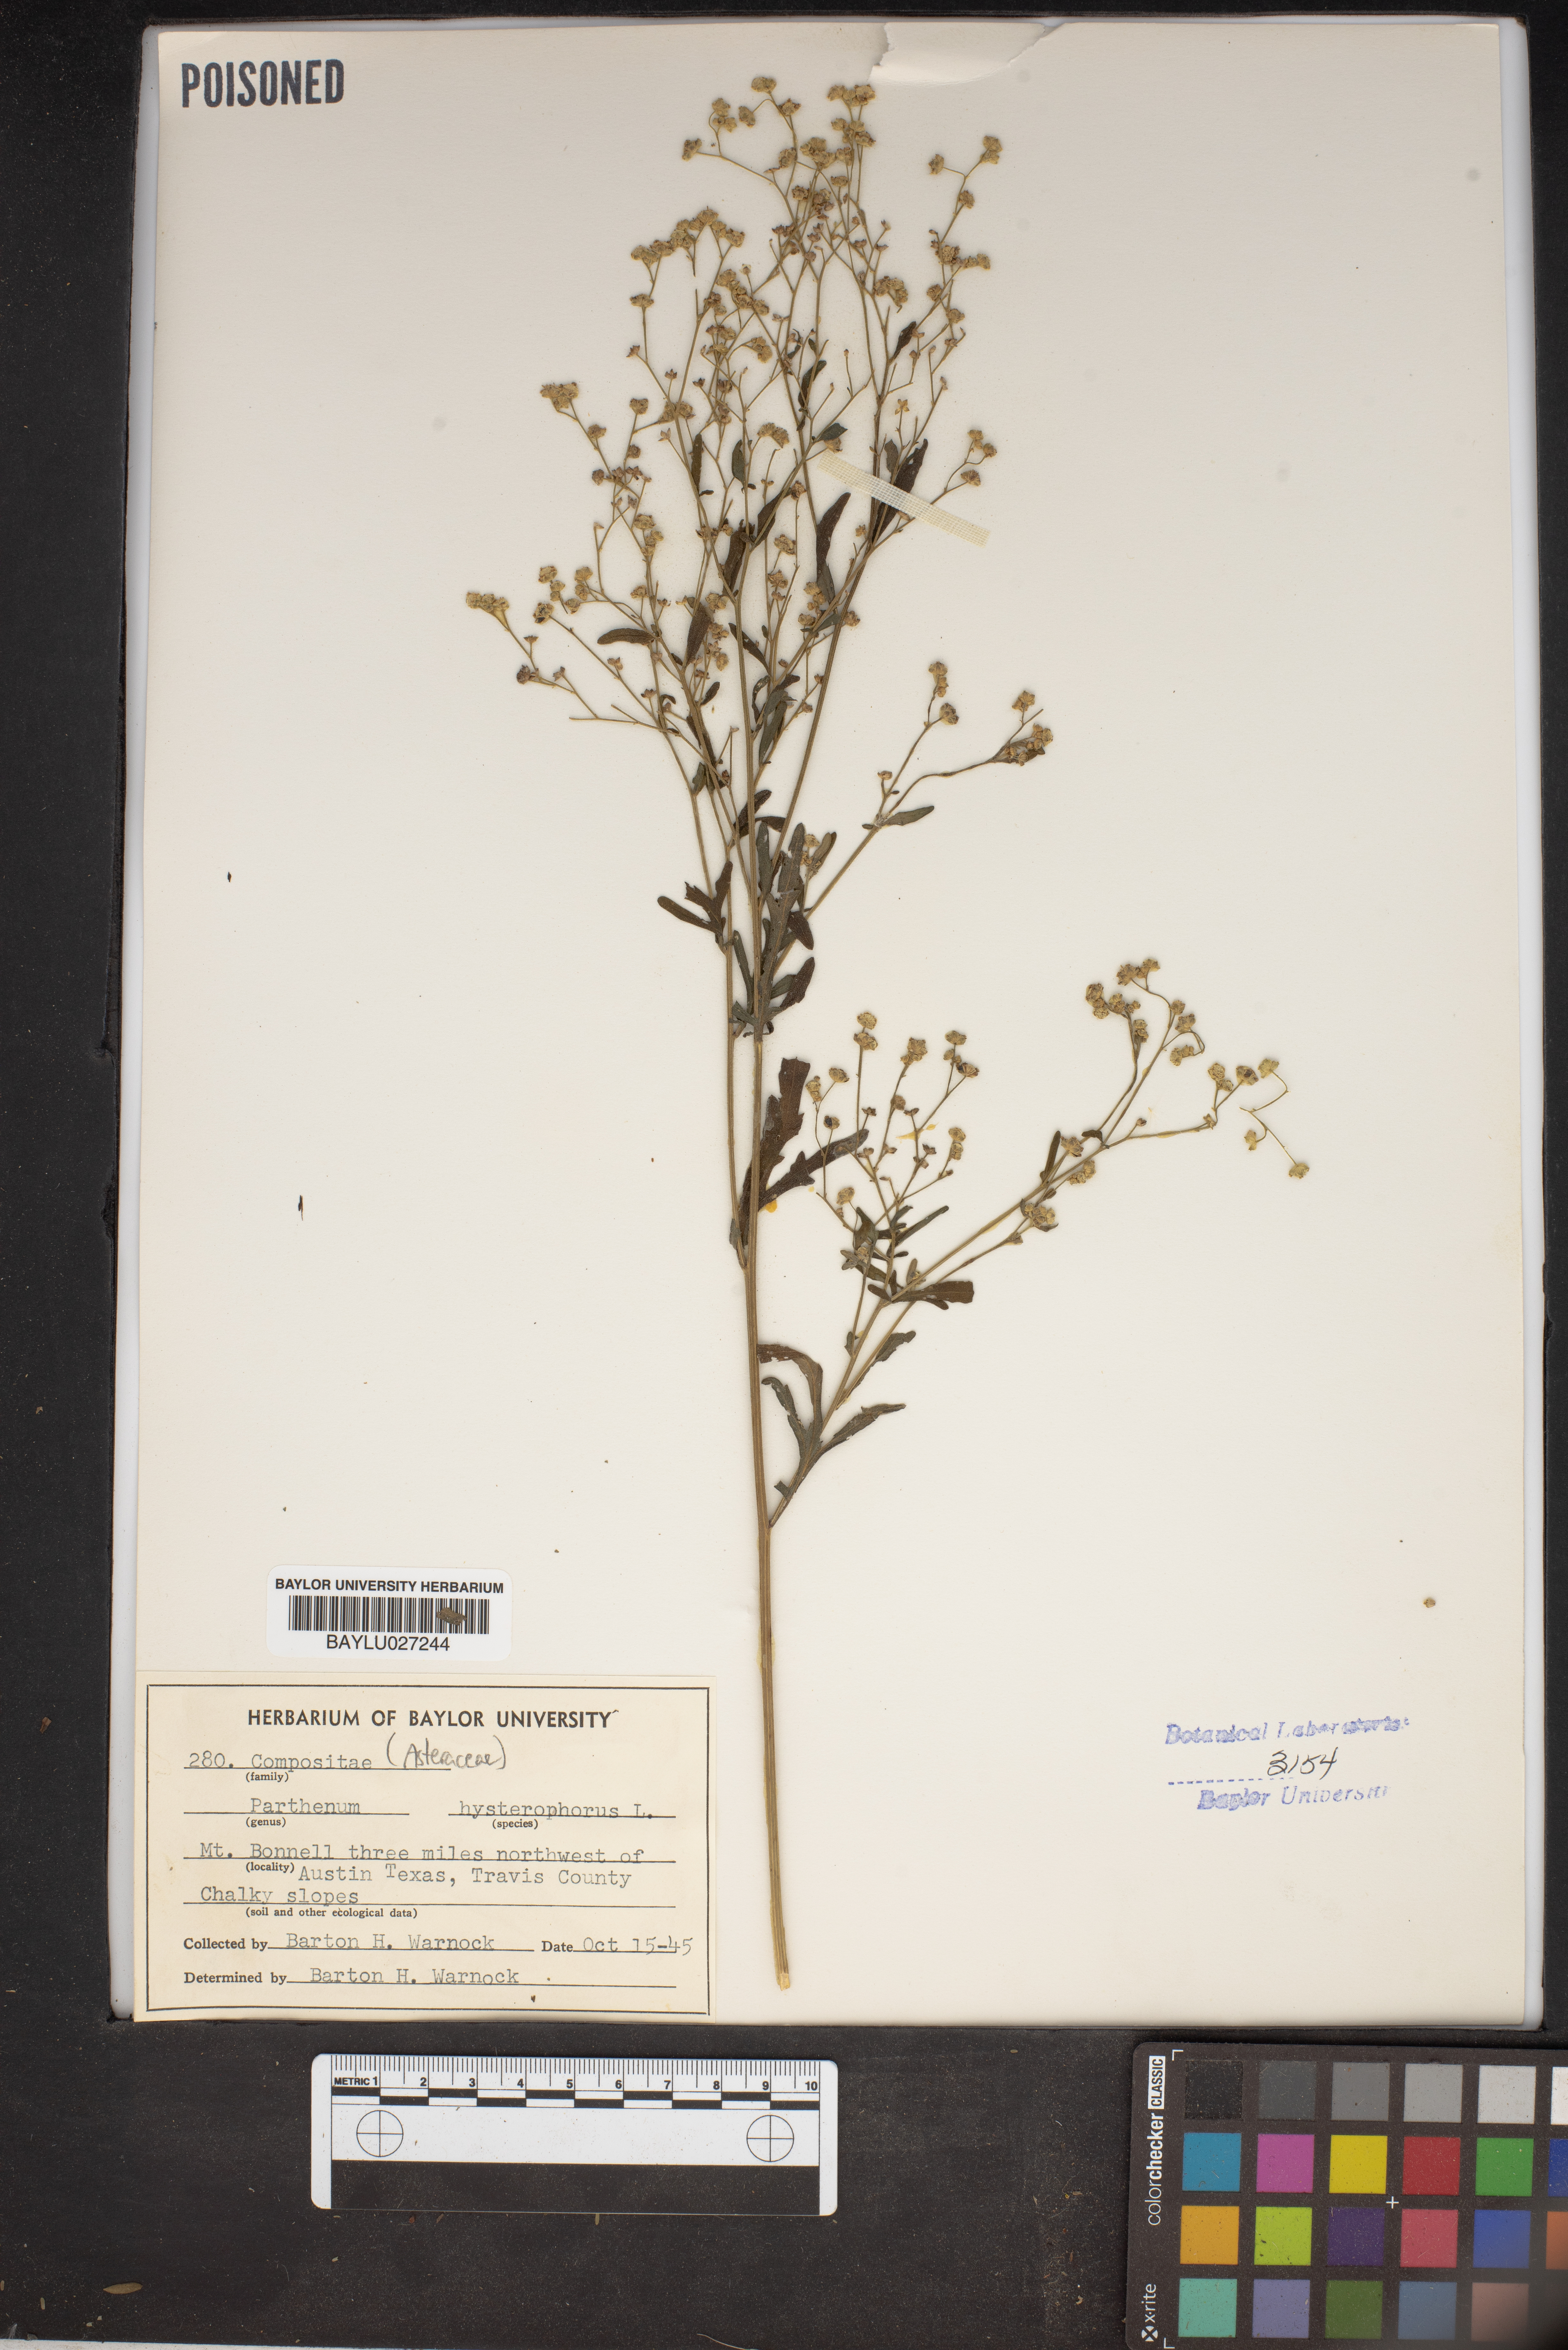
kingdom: Plantae
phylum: Tracheophyta
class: Magnoliopsida
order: Asterales
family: Asteraceae
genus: Parthenium
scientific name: Parthenium hysterophorus
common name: Santa maria feverfew
